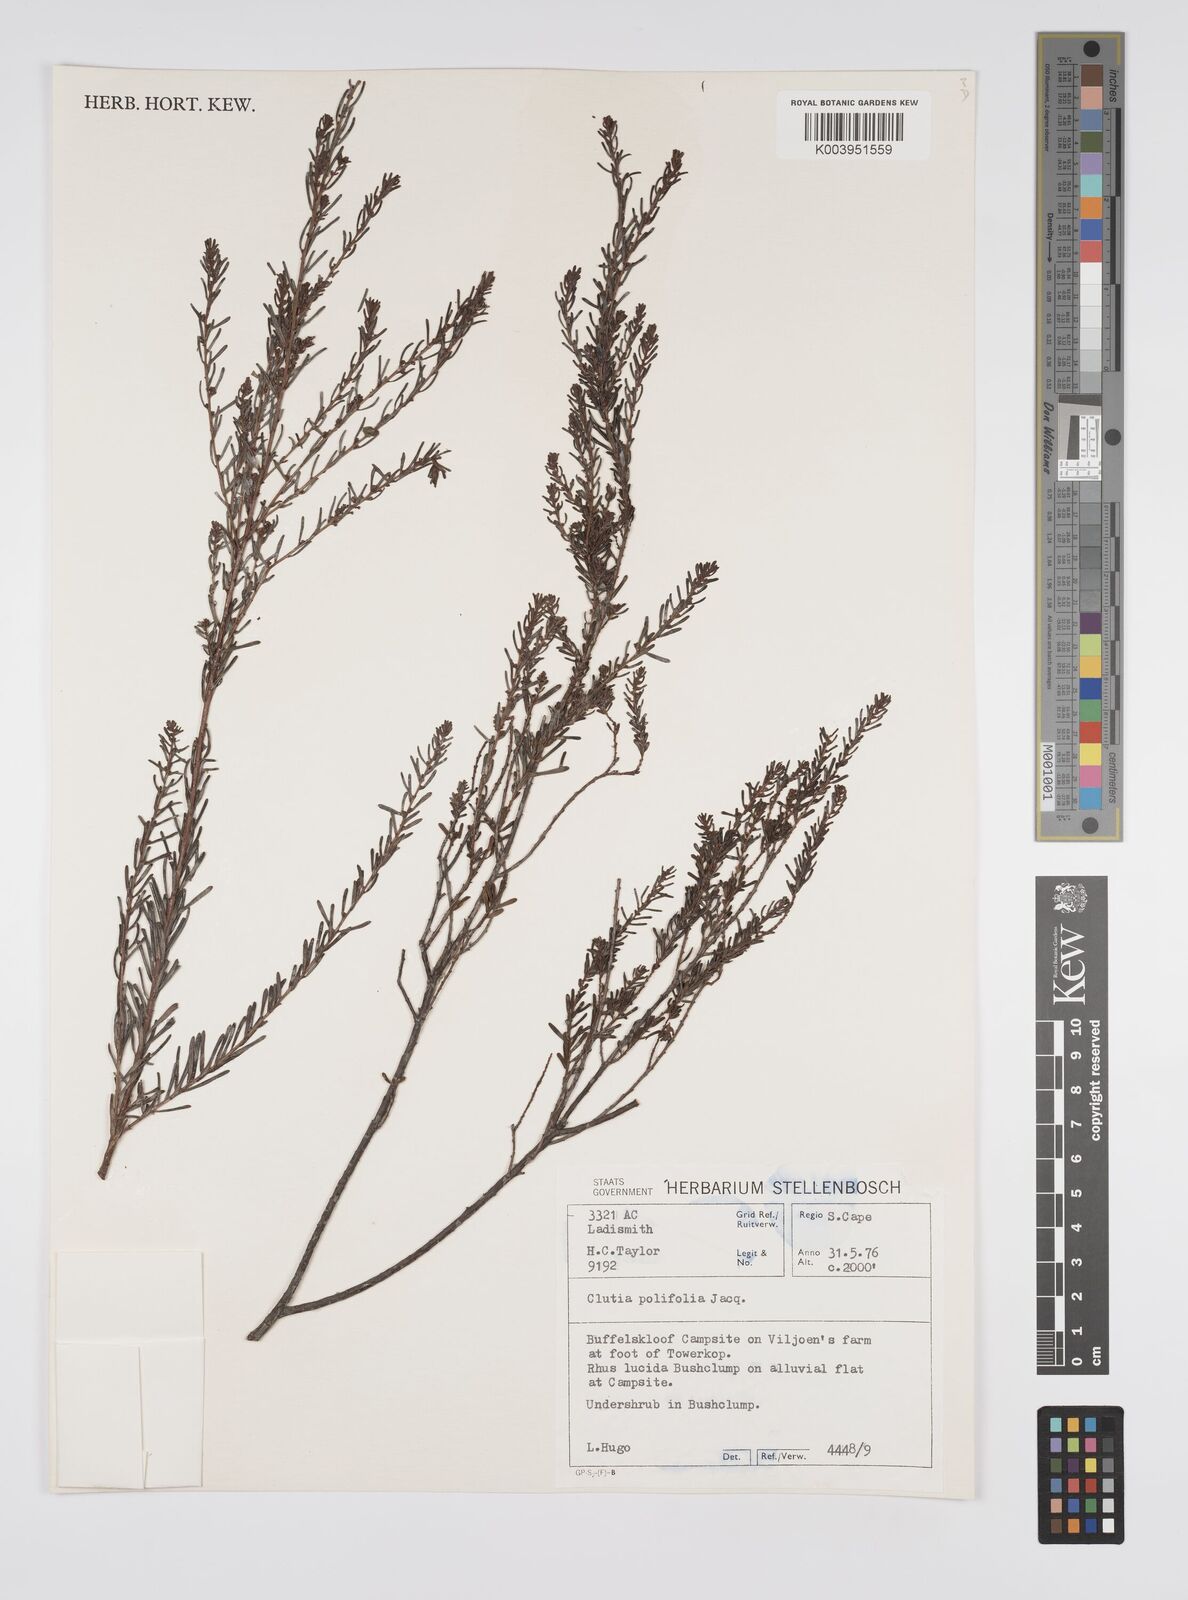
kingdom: Plantae
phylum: Tracheophyta
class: Magnoliopsida
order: Malpighiales
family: Peraceae
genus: Clutia
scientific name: Clutia
